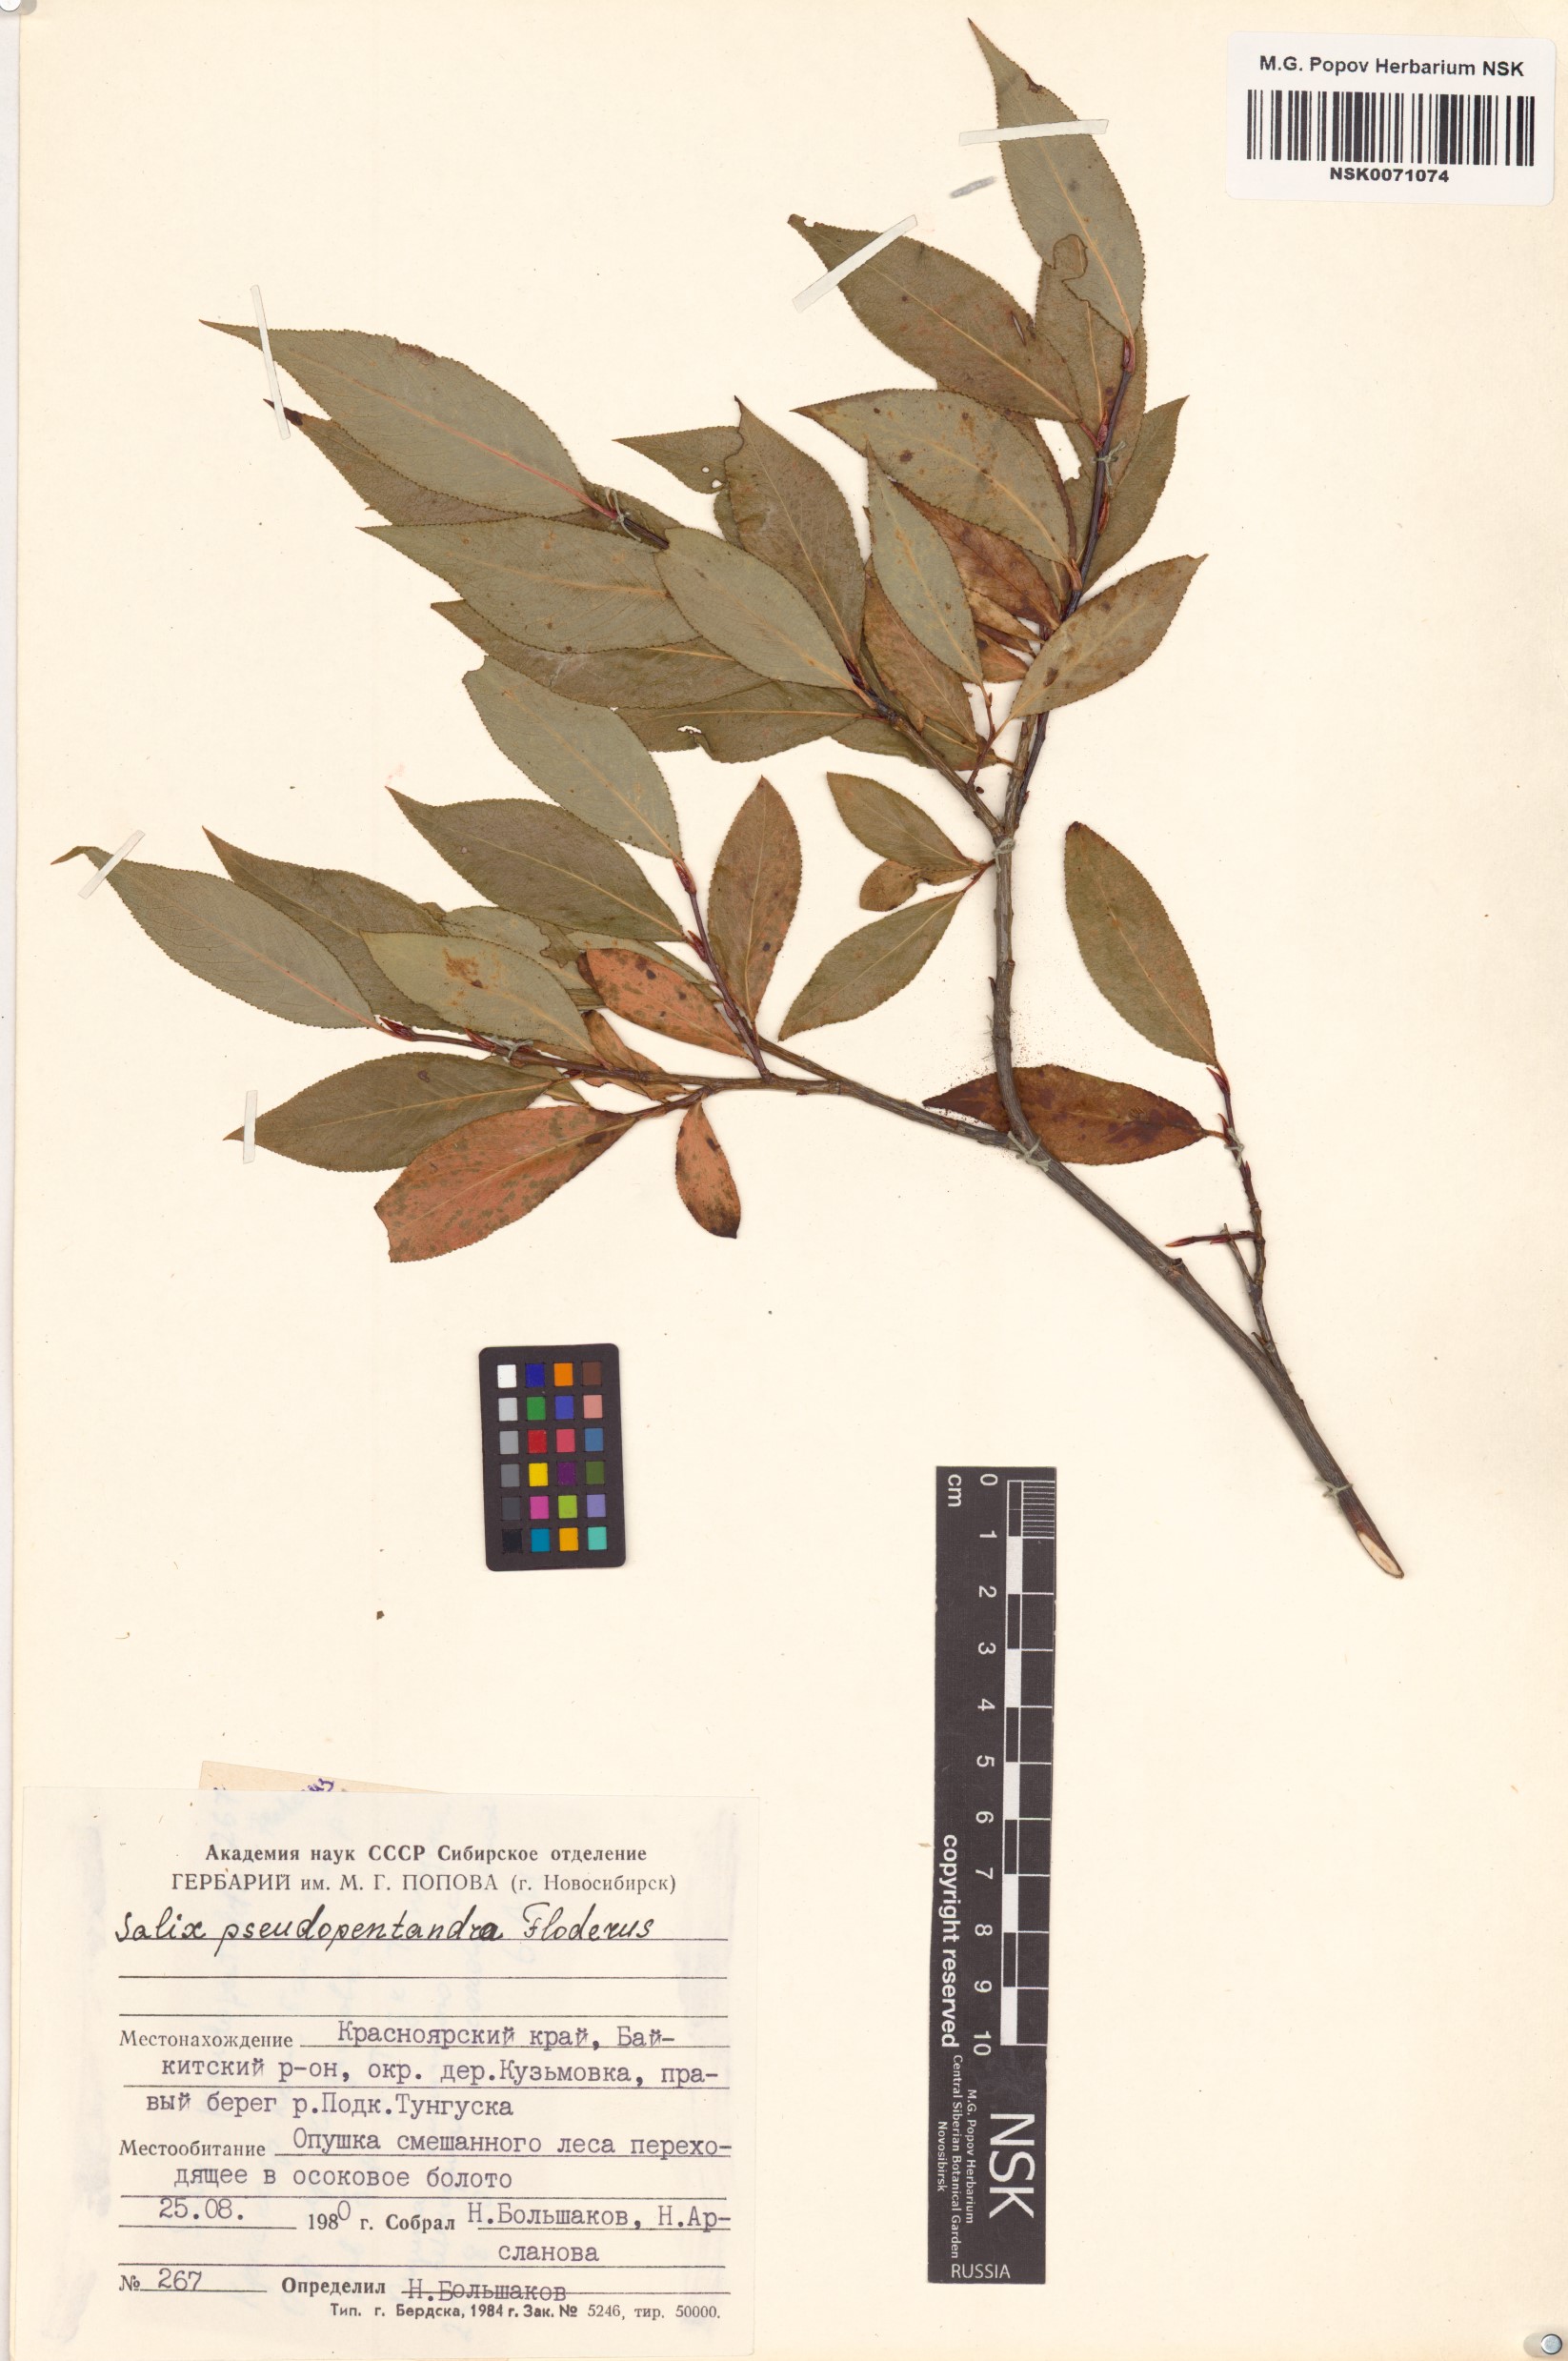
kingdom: Plantae
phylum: Tracheophyta
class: Magnoliopsida
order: Malpighiales
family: Salicaceae
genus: Salix
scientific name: Salix pseudopentandra
